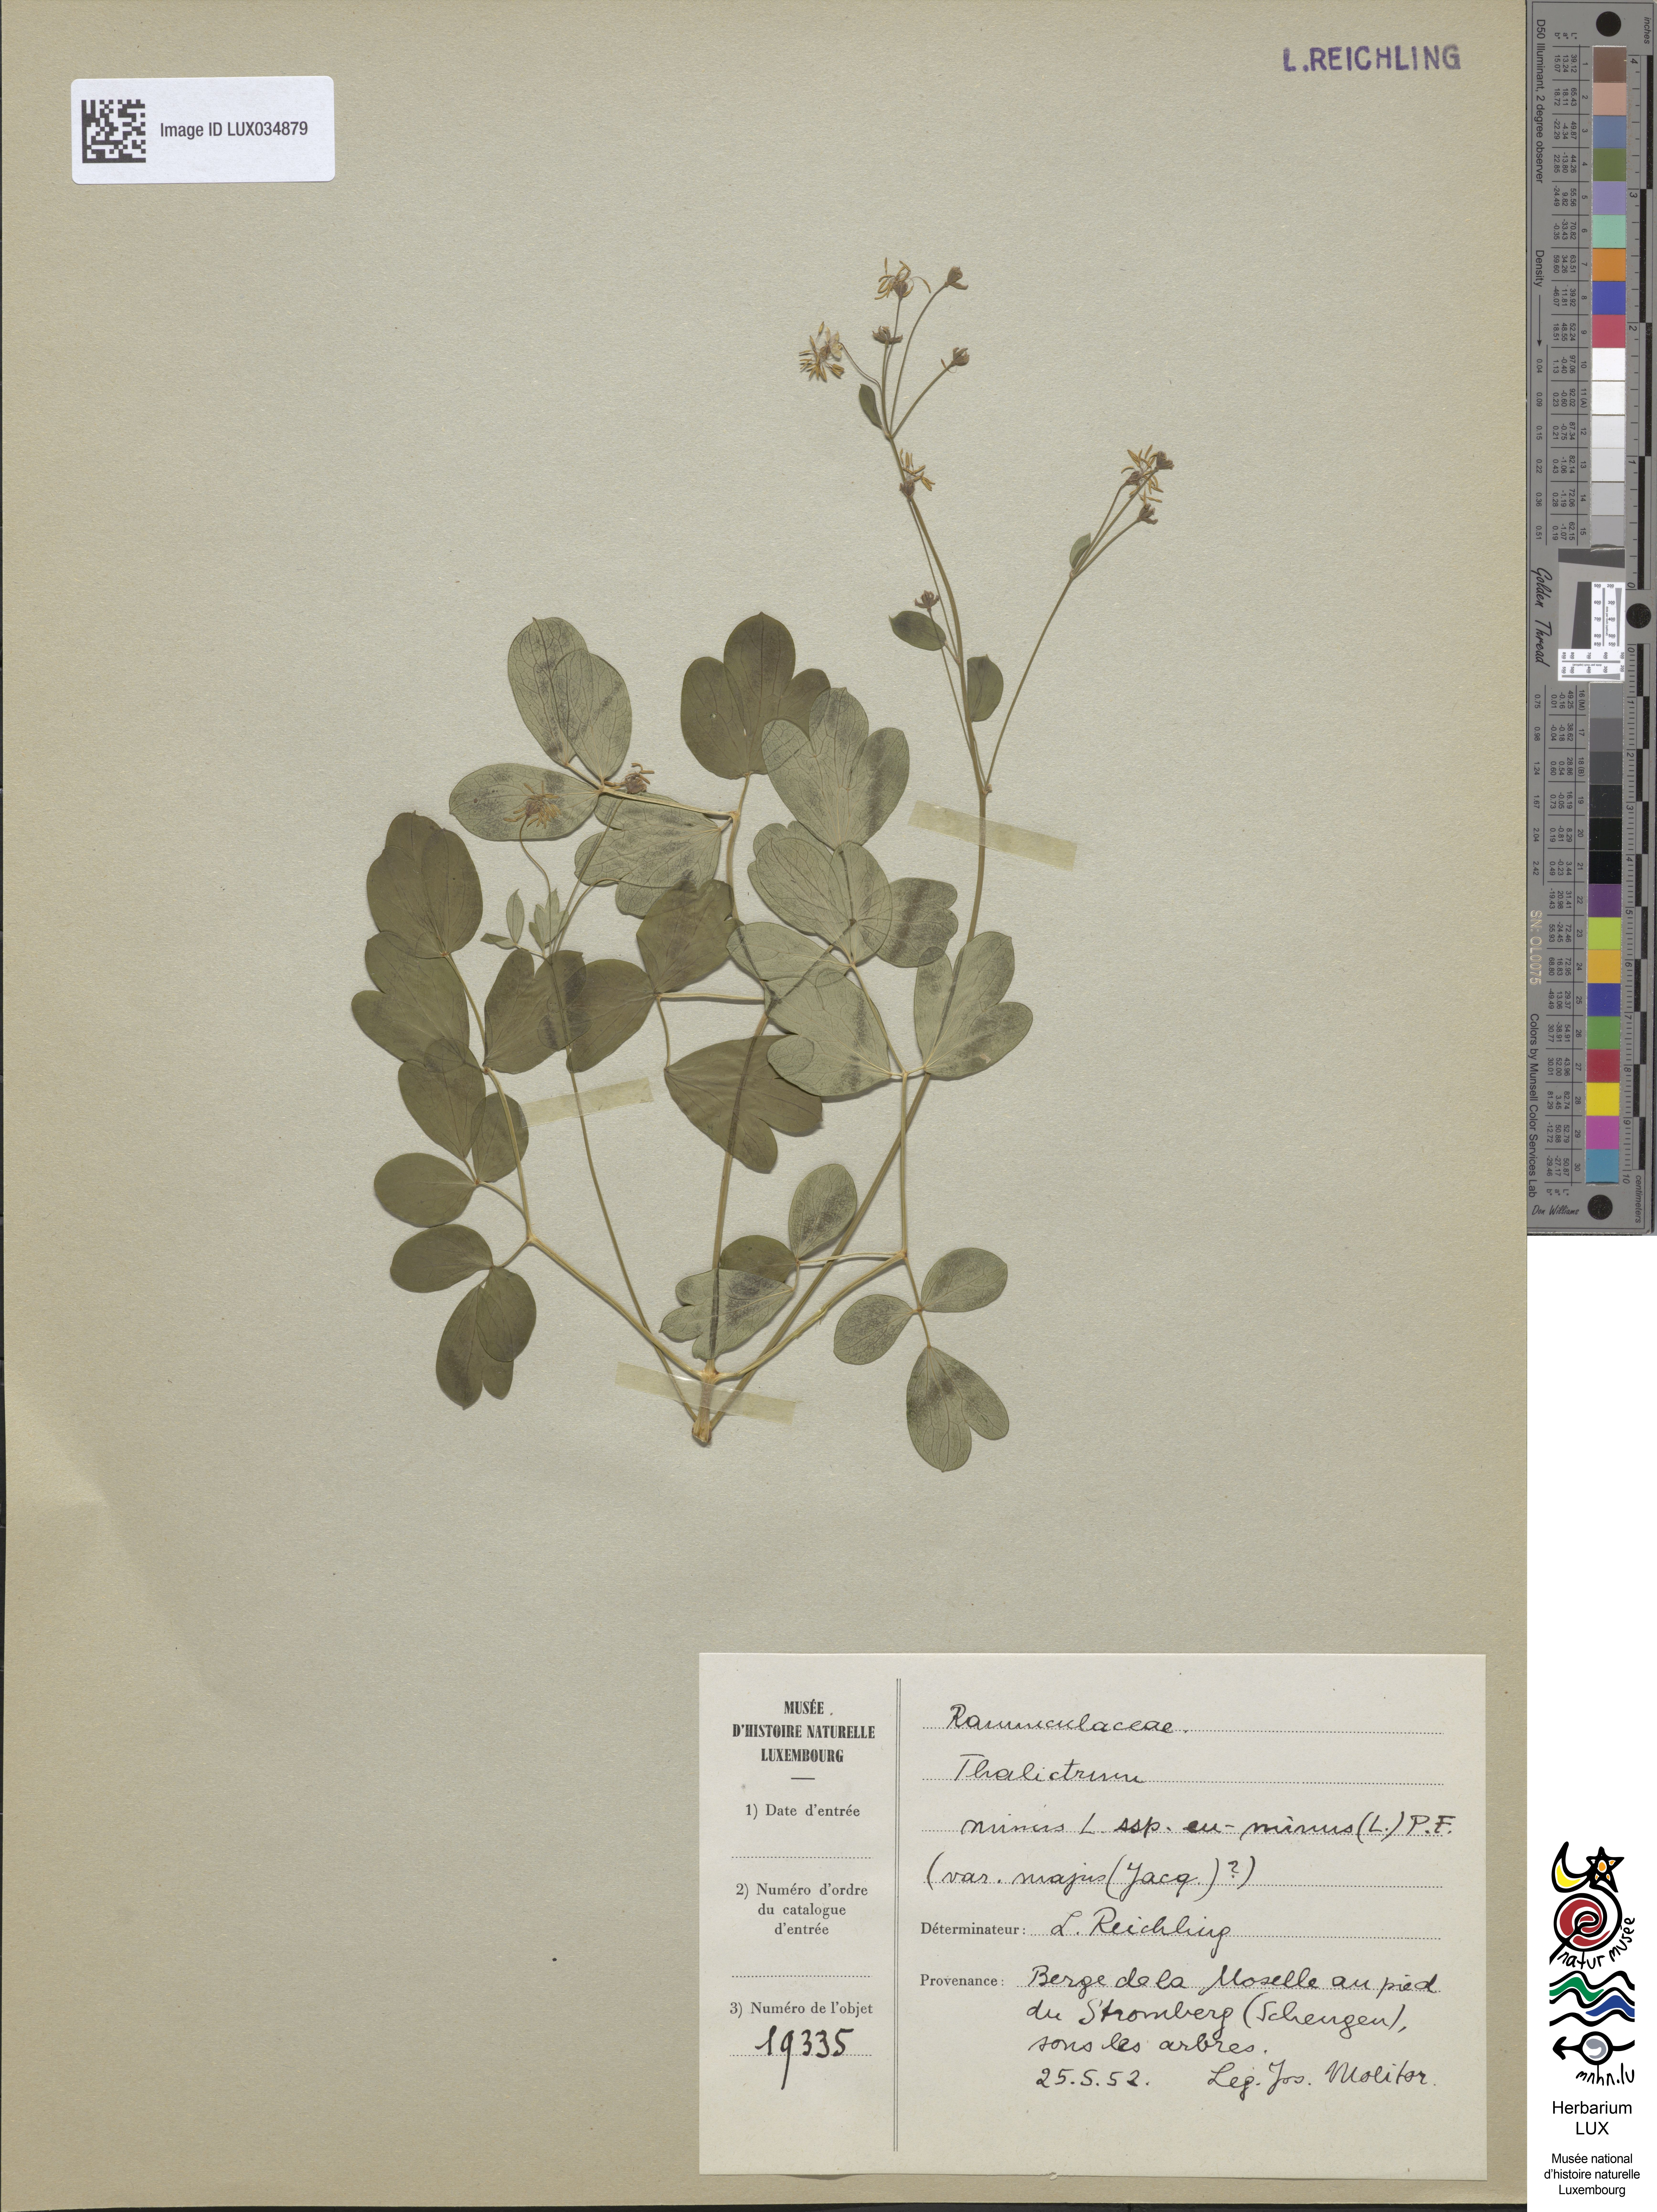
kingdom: Plantae
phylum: Tracheophyta
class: Magnoliopsida
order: Ranunculales
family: Ranunculaceae
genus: Thalictrum
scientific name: Thalictrum minus
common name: Lesser meadow-rue
